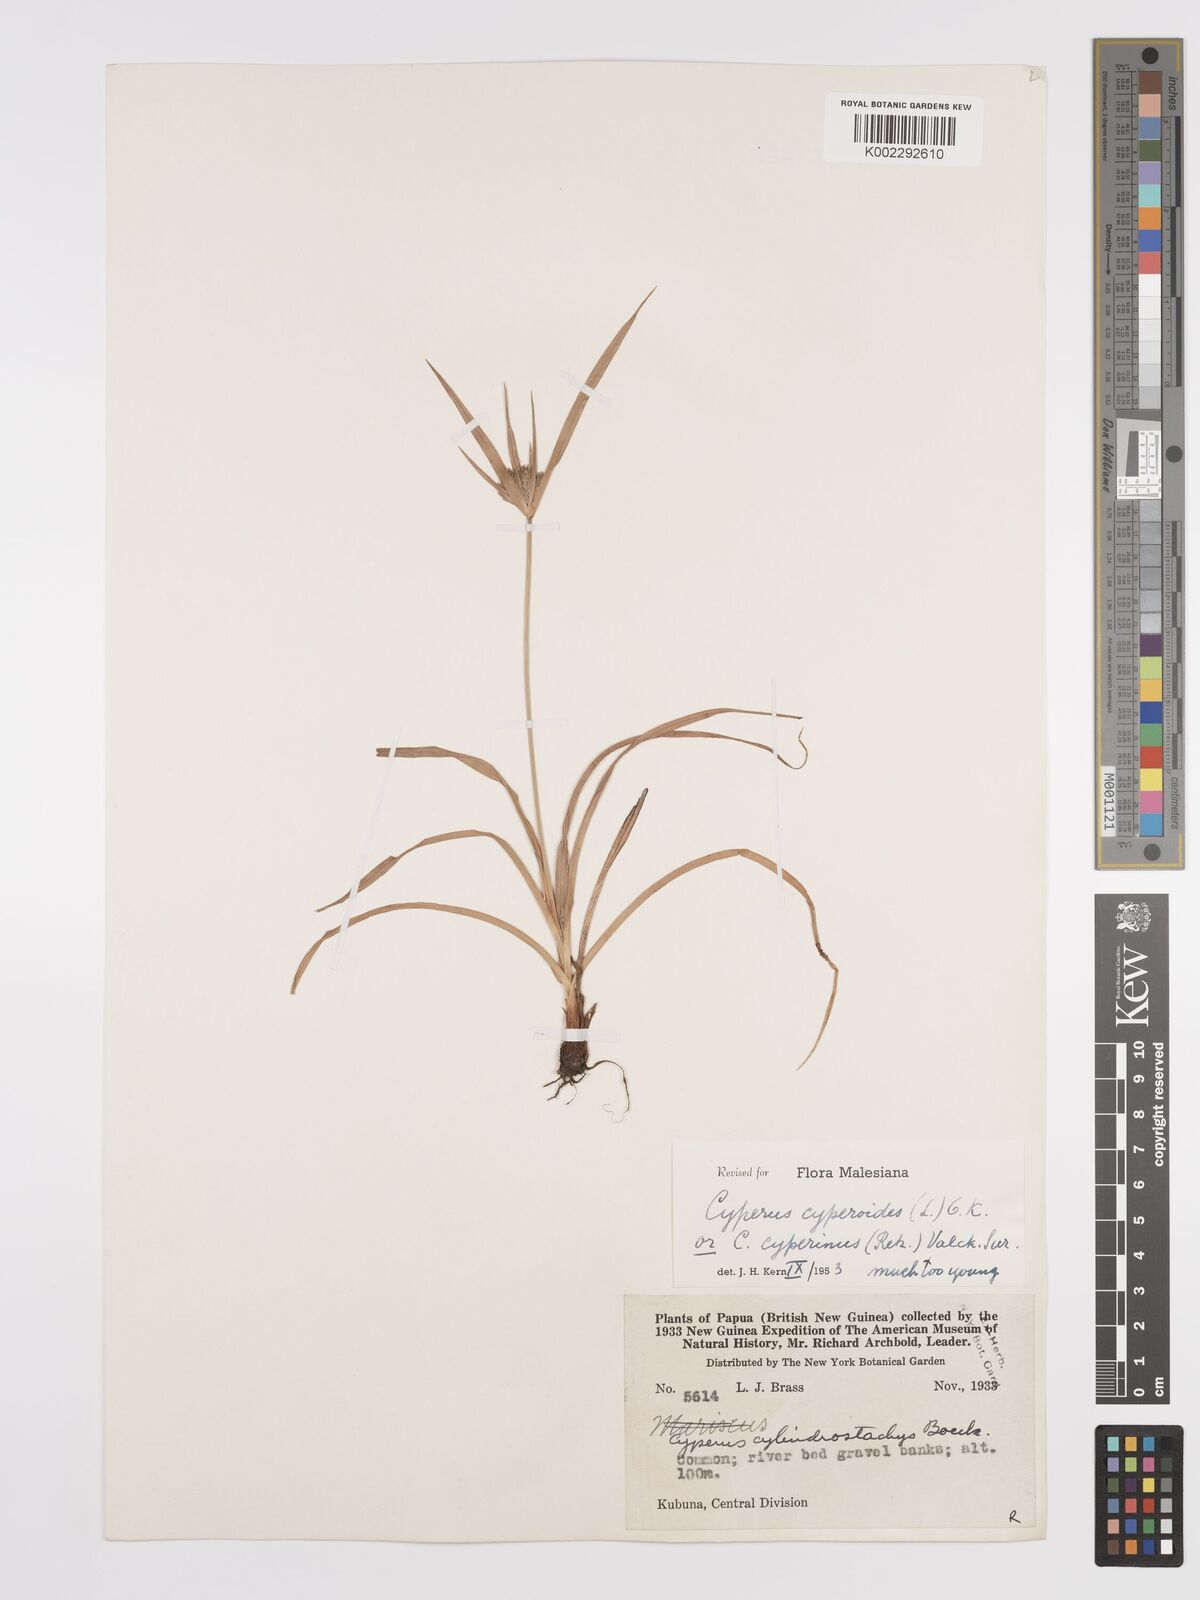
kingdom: Plantae
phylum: Tracheophyta
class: Liliopsida
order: Poales
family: Cyperaceae
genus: Cyperus
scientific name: Cyperus cyperinus
